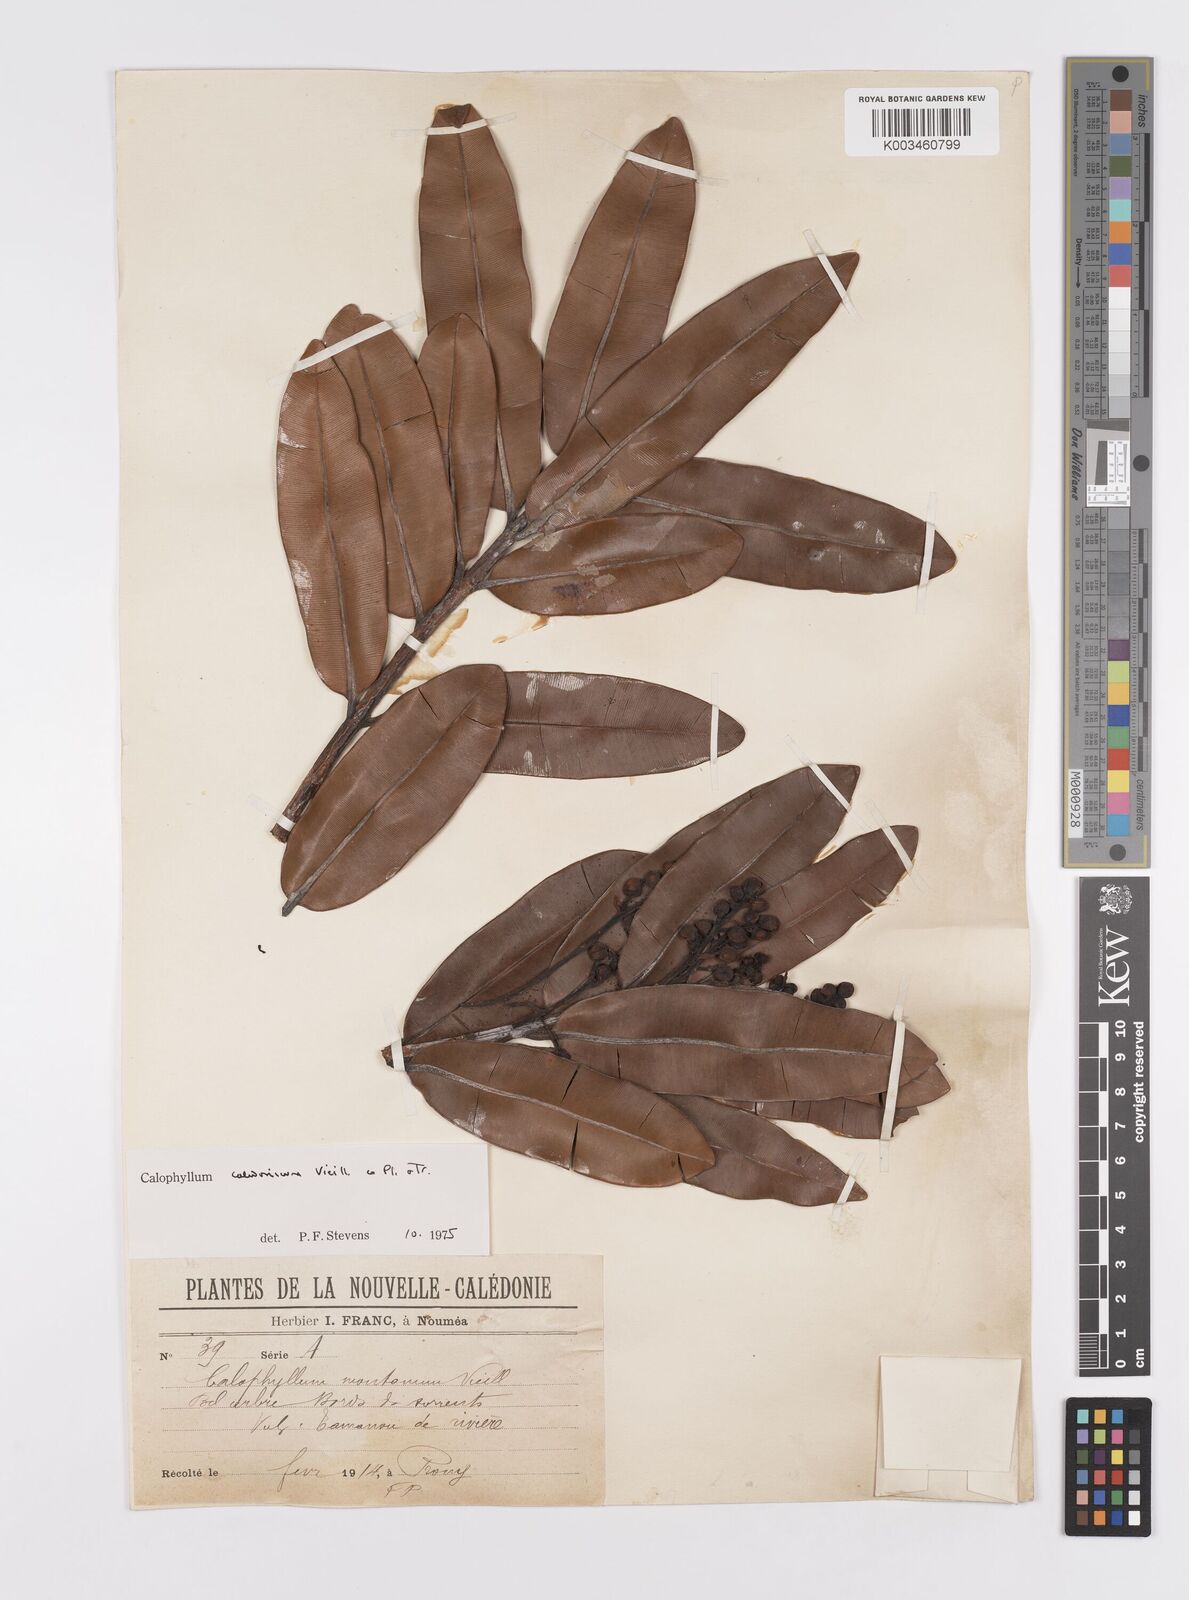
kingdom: Plantae
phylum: Tracheophyta
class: Magnoliopsida
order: Malpighiales
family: Calophyllaceae
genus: Calophyllum
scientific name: Calophyllum caledonicum
